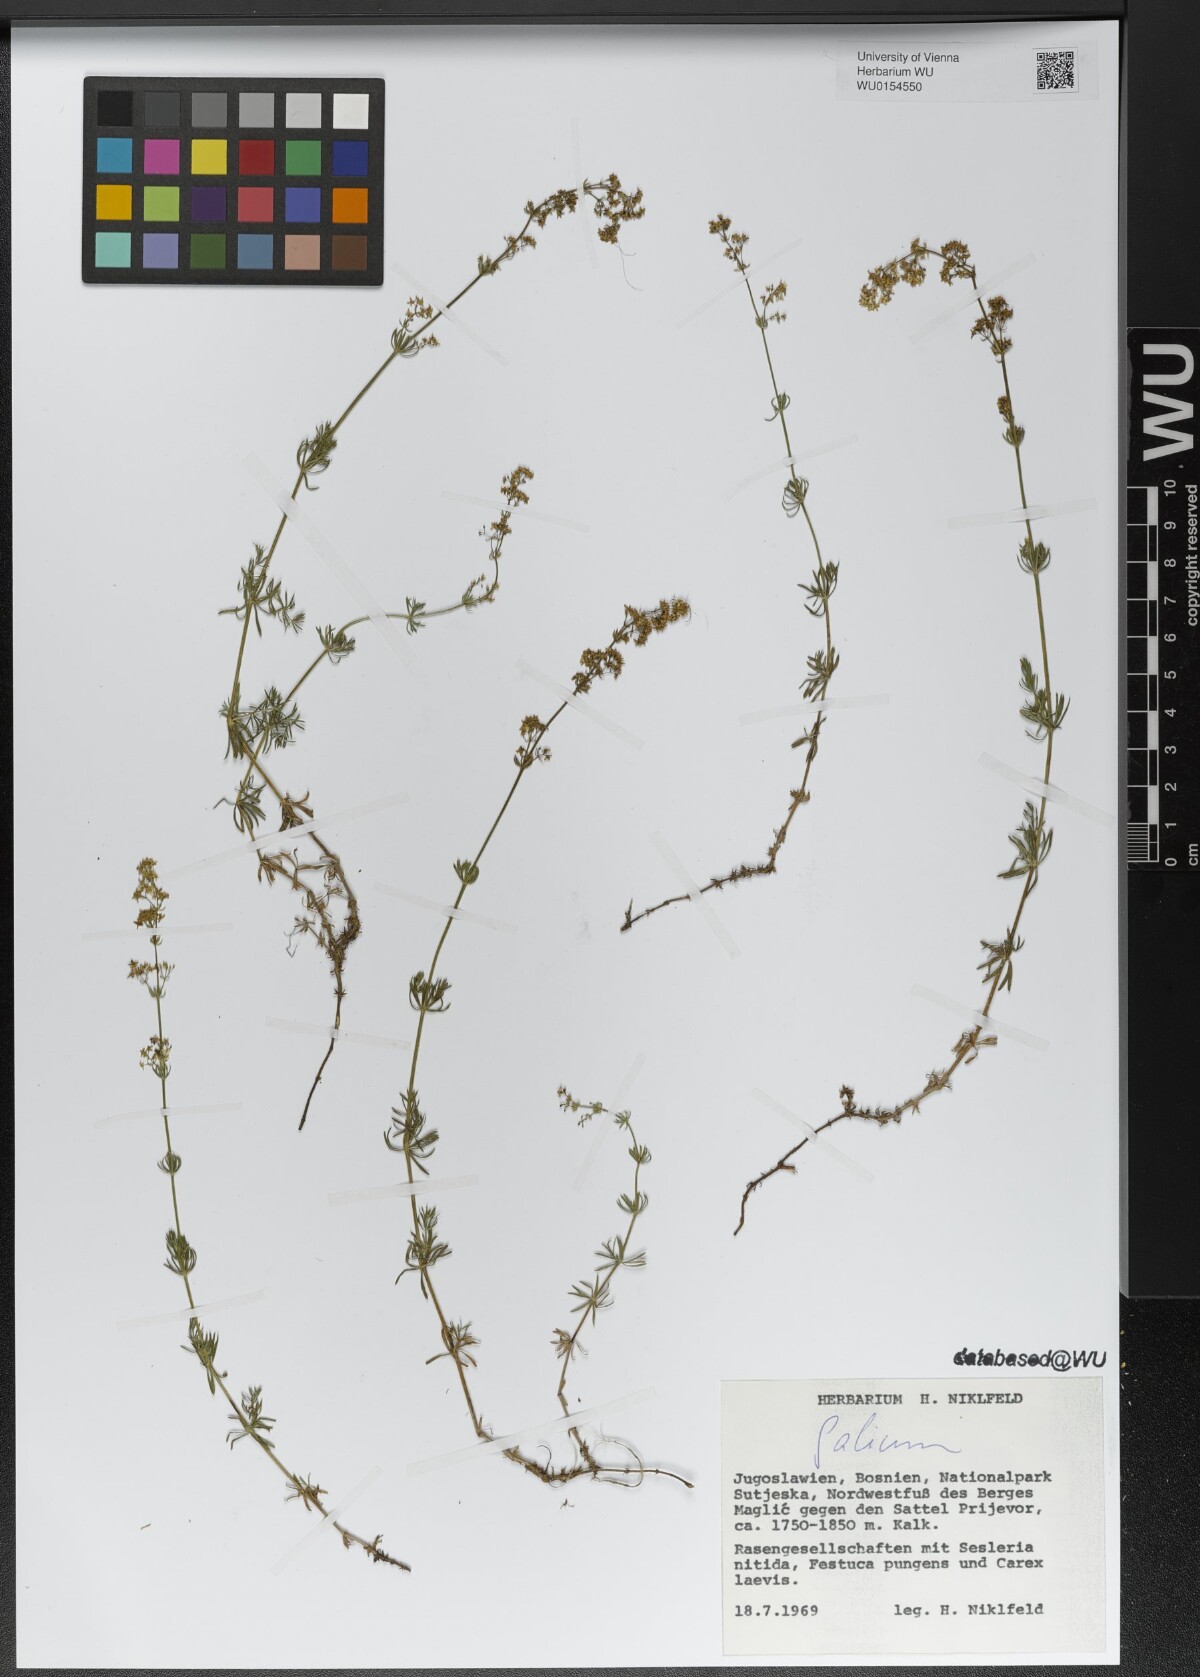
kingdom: Plantae
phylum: Tracheophyta
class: Magnoliopsida
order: Gentianales
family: Rubiaceae
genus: Galium
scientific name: Galium
